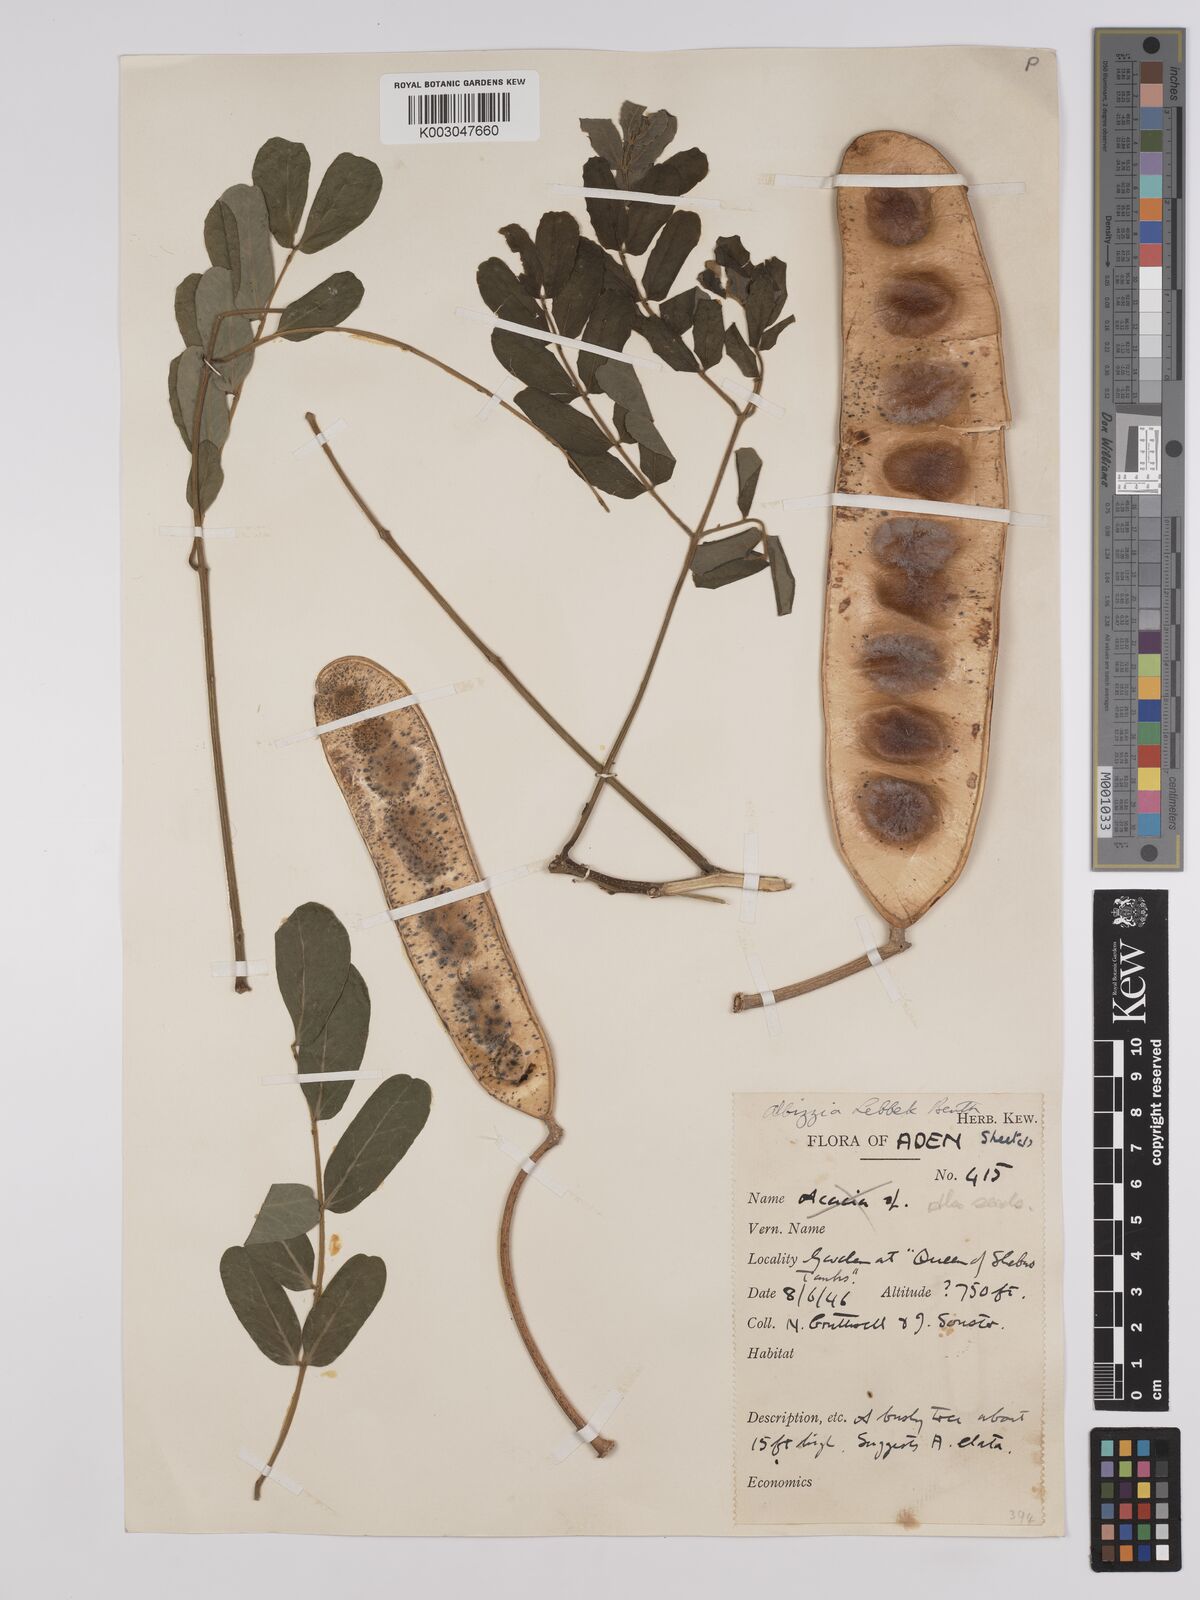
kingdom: Plantae
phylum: Tracheophyta
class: Magnoliopsida
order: Fabales
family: Fabaceae
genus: Albizia
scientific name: Albizia lebbeck
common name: Woman's tongue
